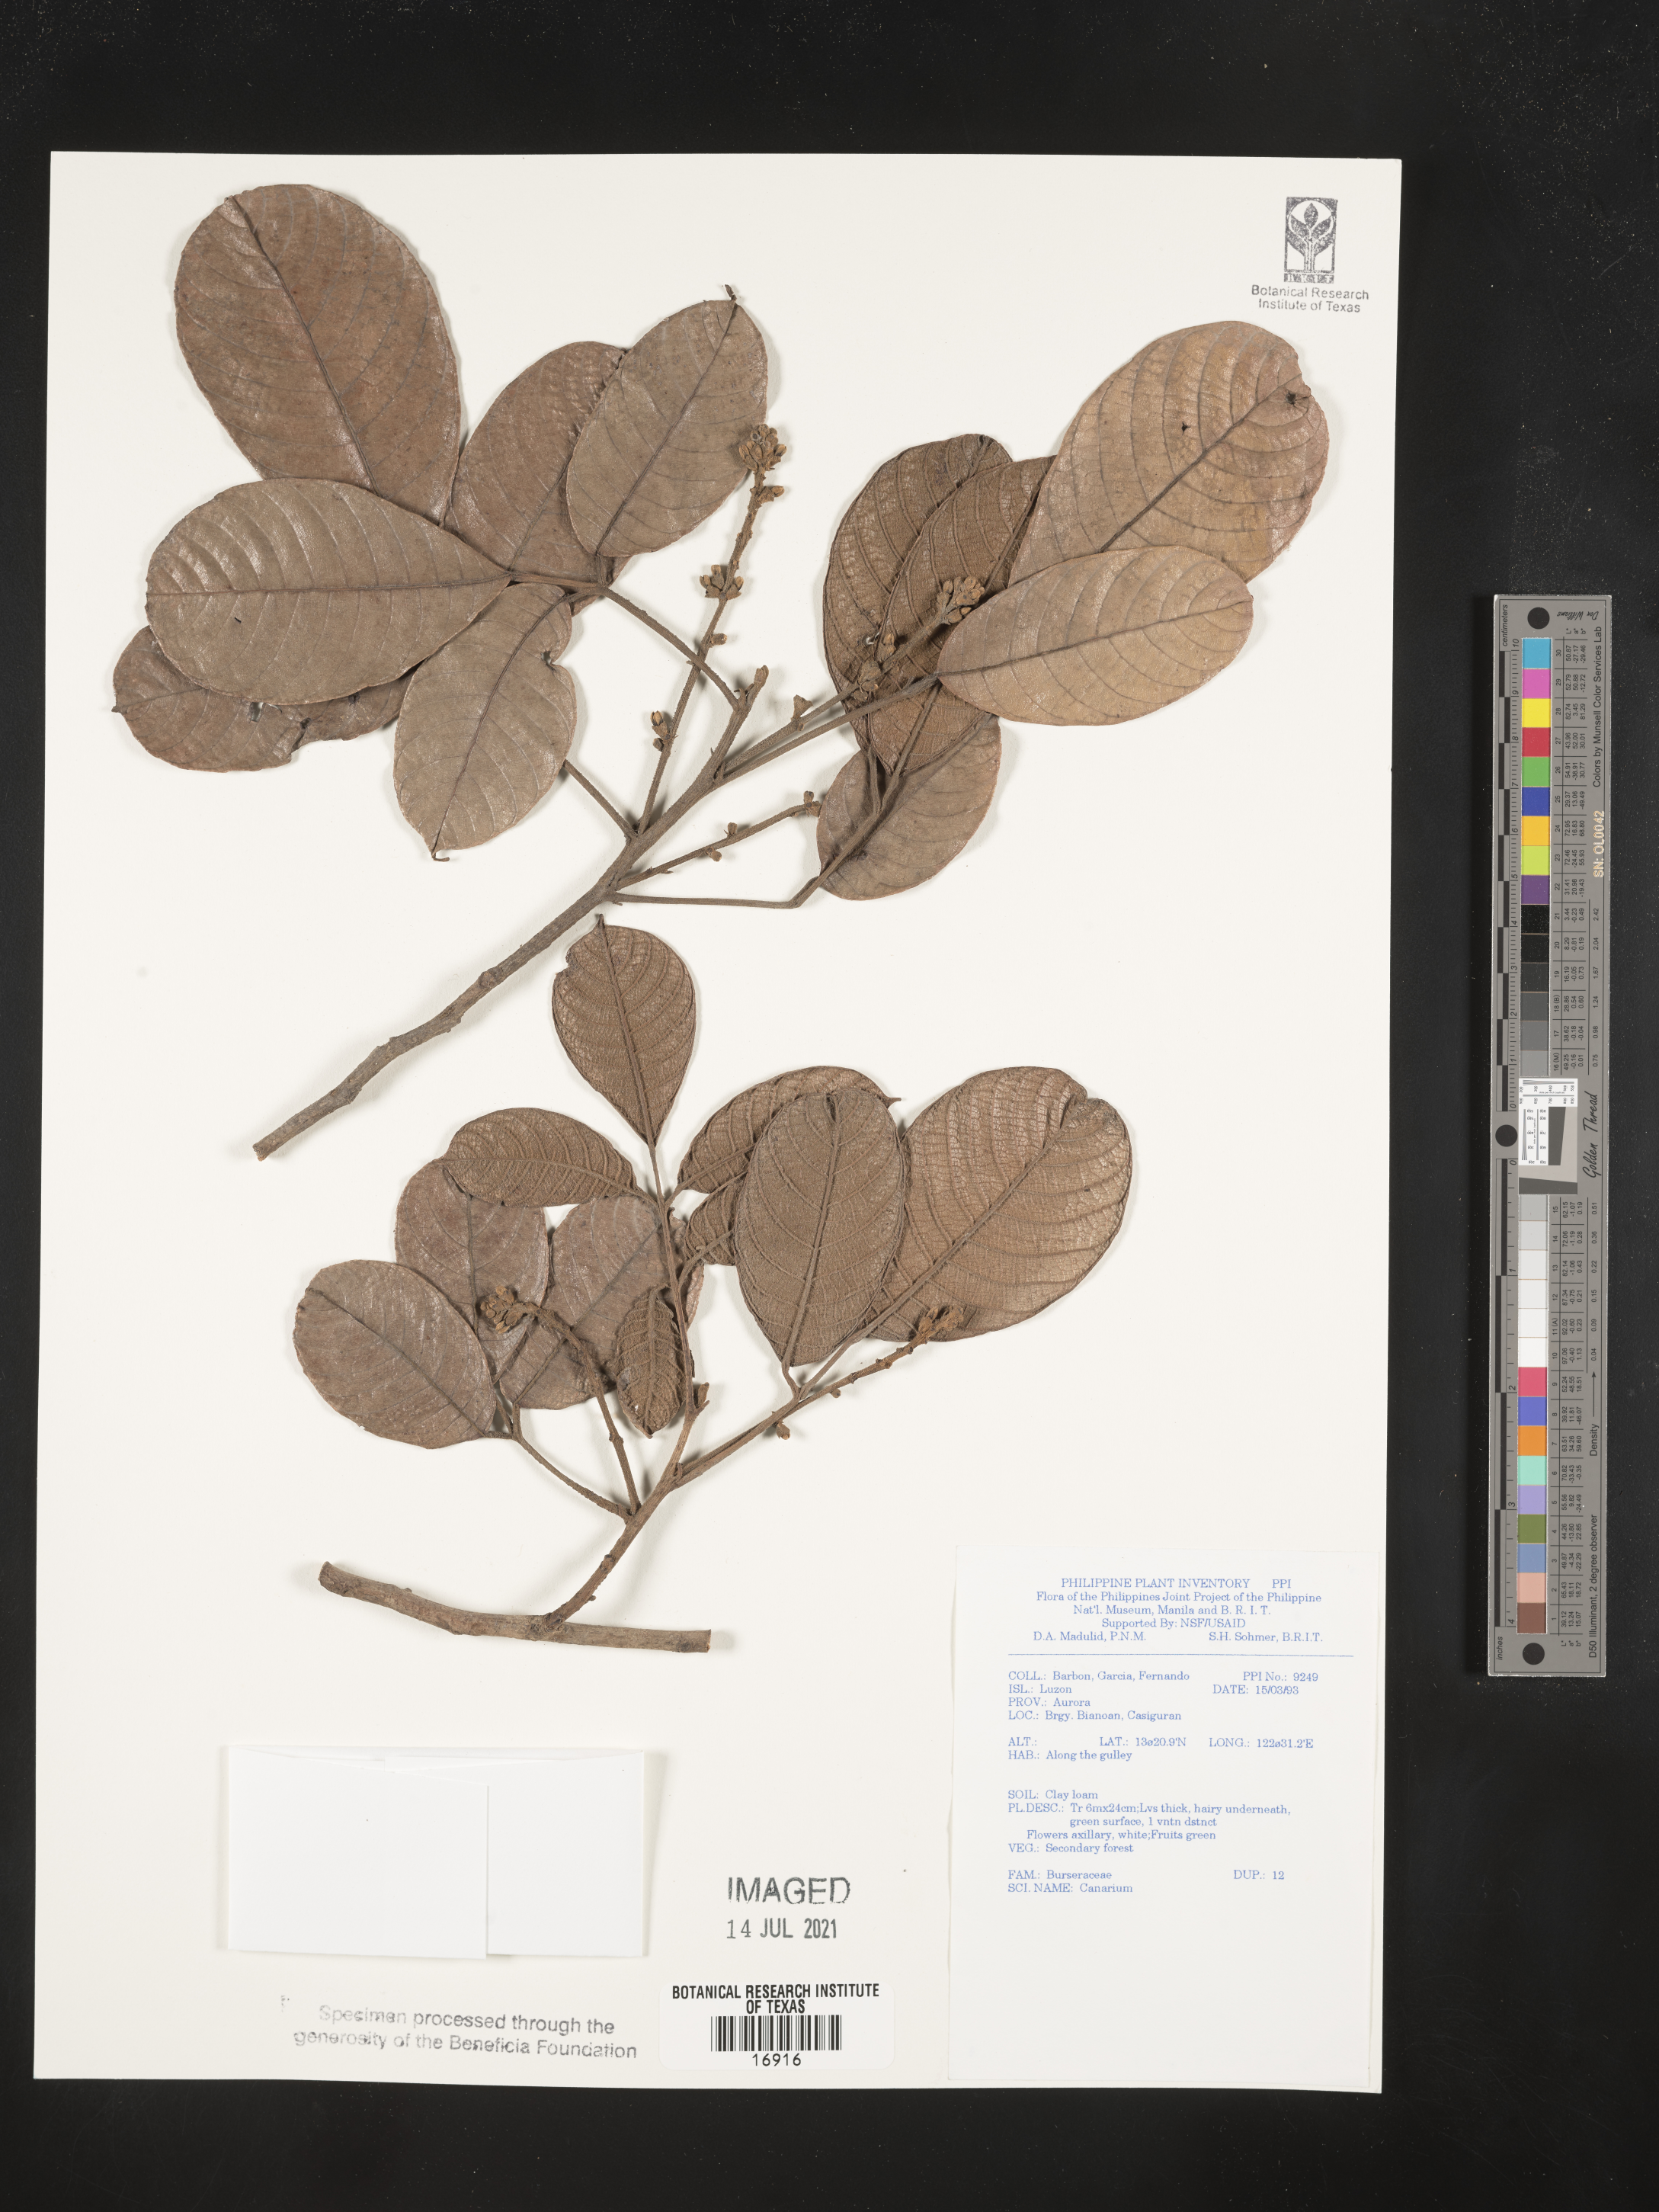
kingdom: Plantae
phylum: Tracheophyta
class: Magnoliopsida
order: Sapindales
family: Burseraceae
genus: Canarium
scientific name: Canarium
